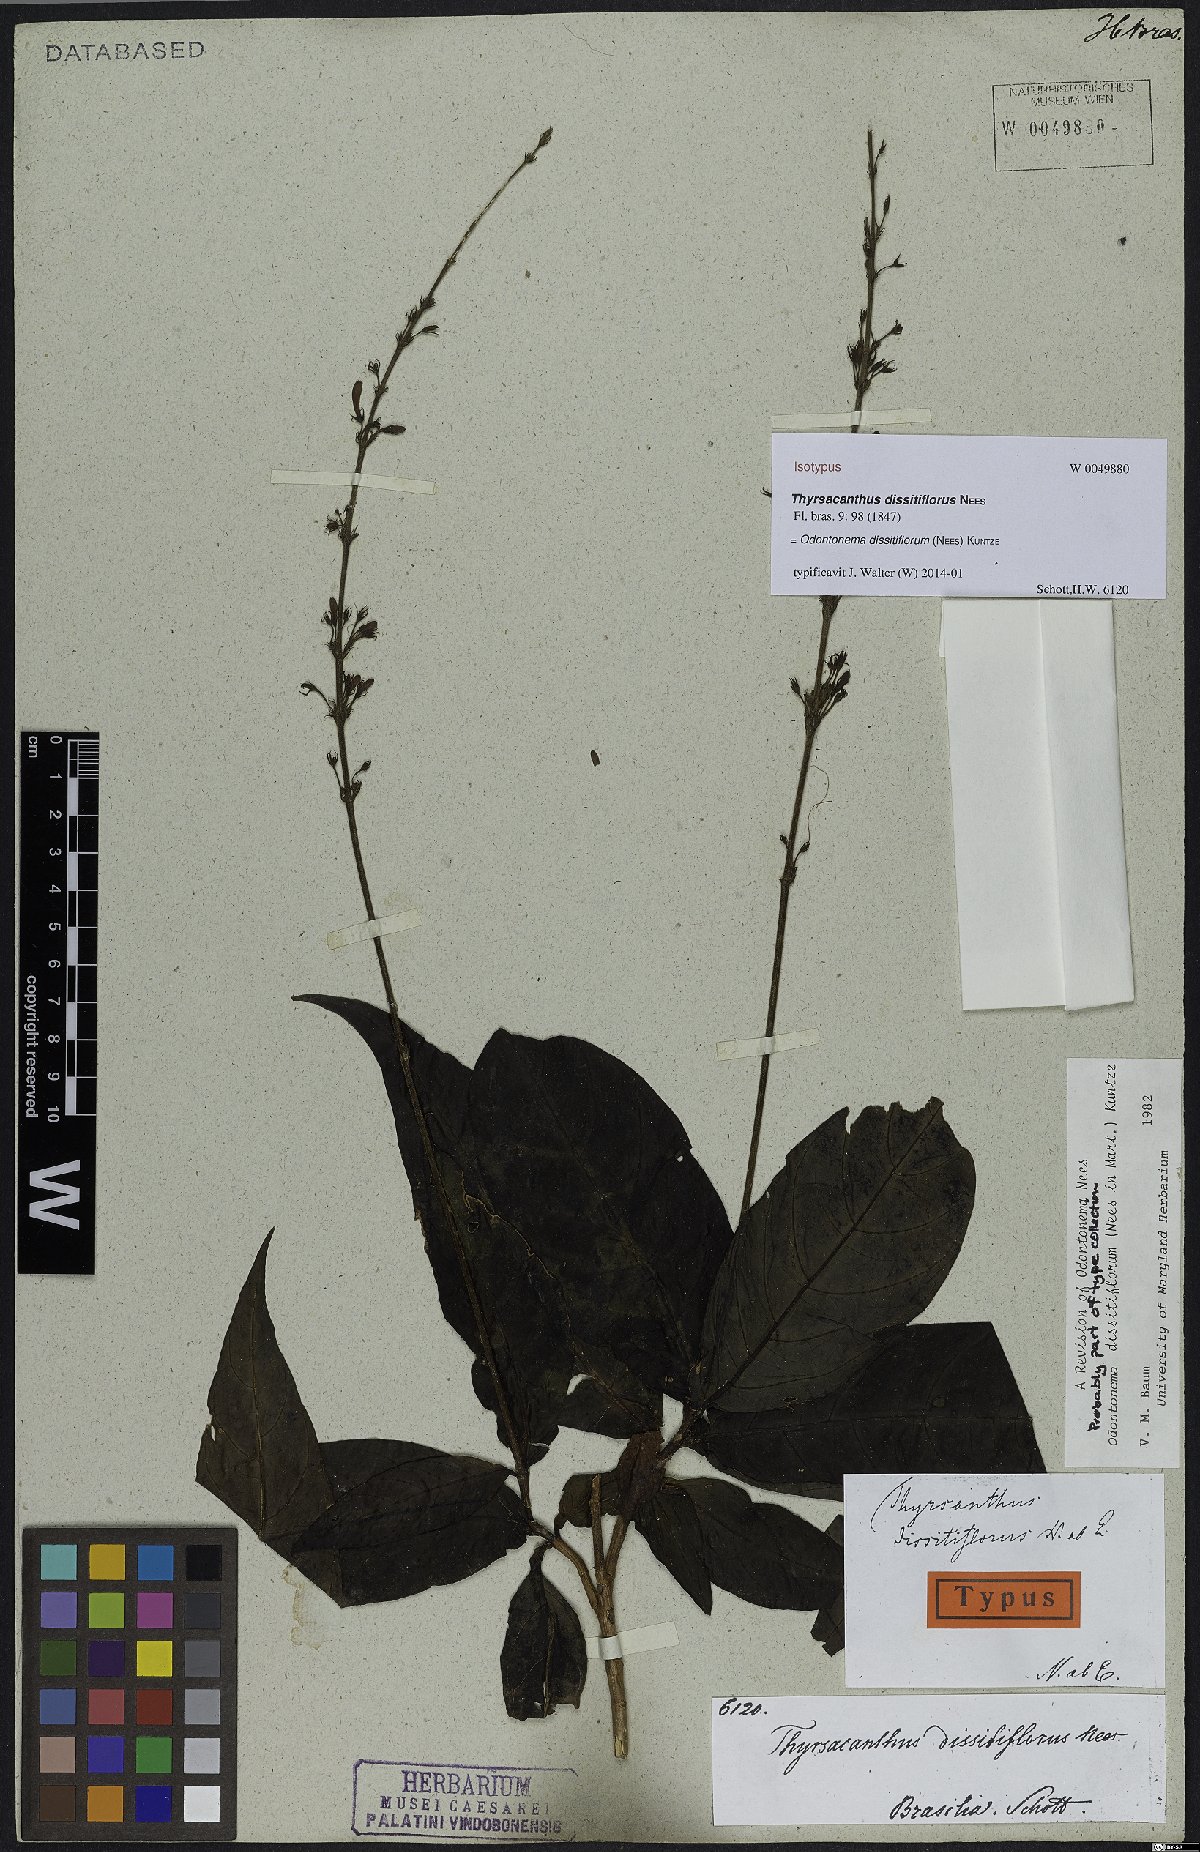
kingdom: Plantae
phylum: Tracheophyta
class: Magnoliopsida
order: Lamiales
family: Acanthaceae
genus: Odontonema
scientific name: Odontonema dissitiflorum
